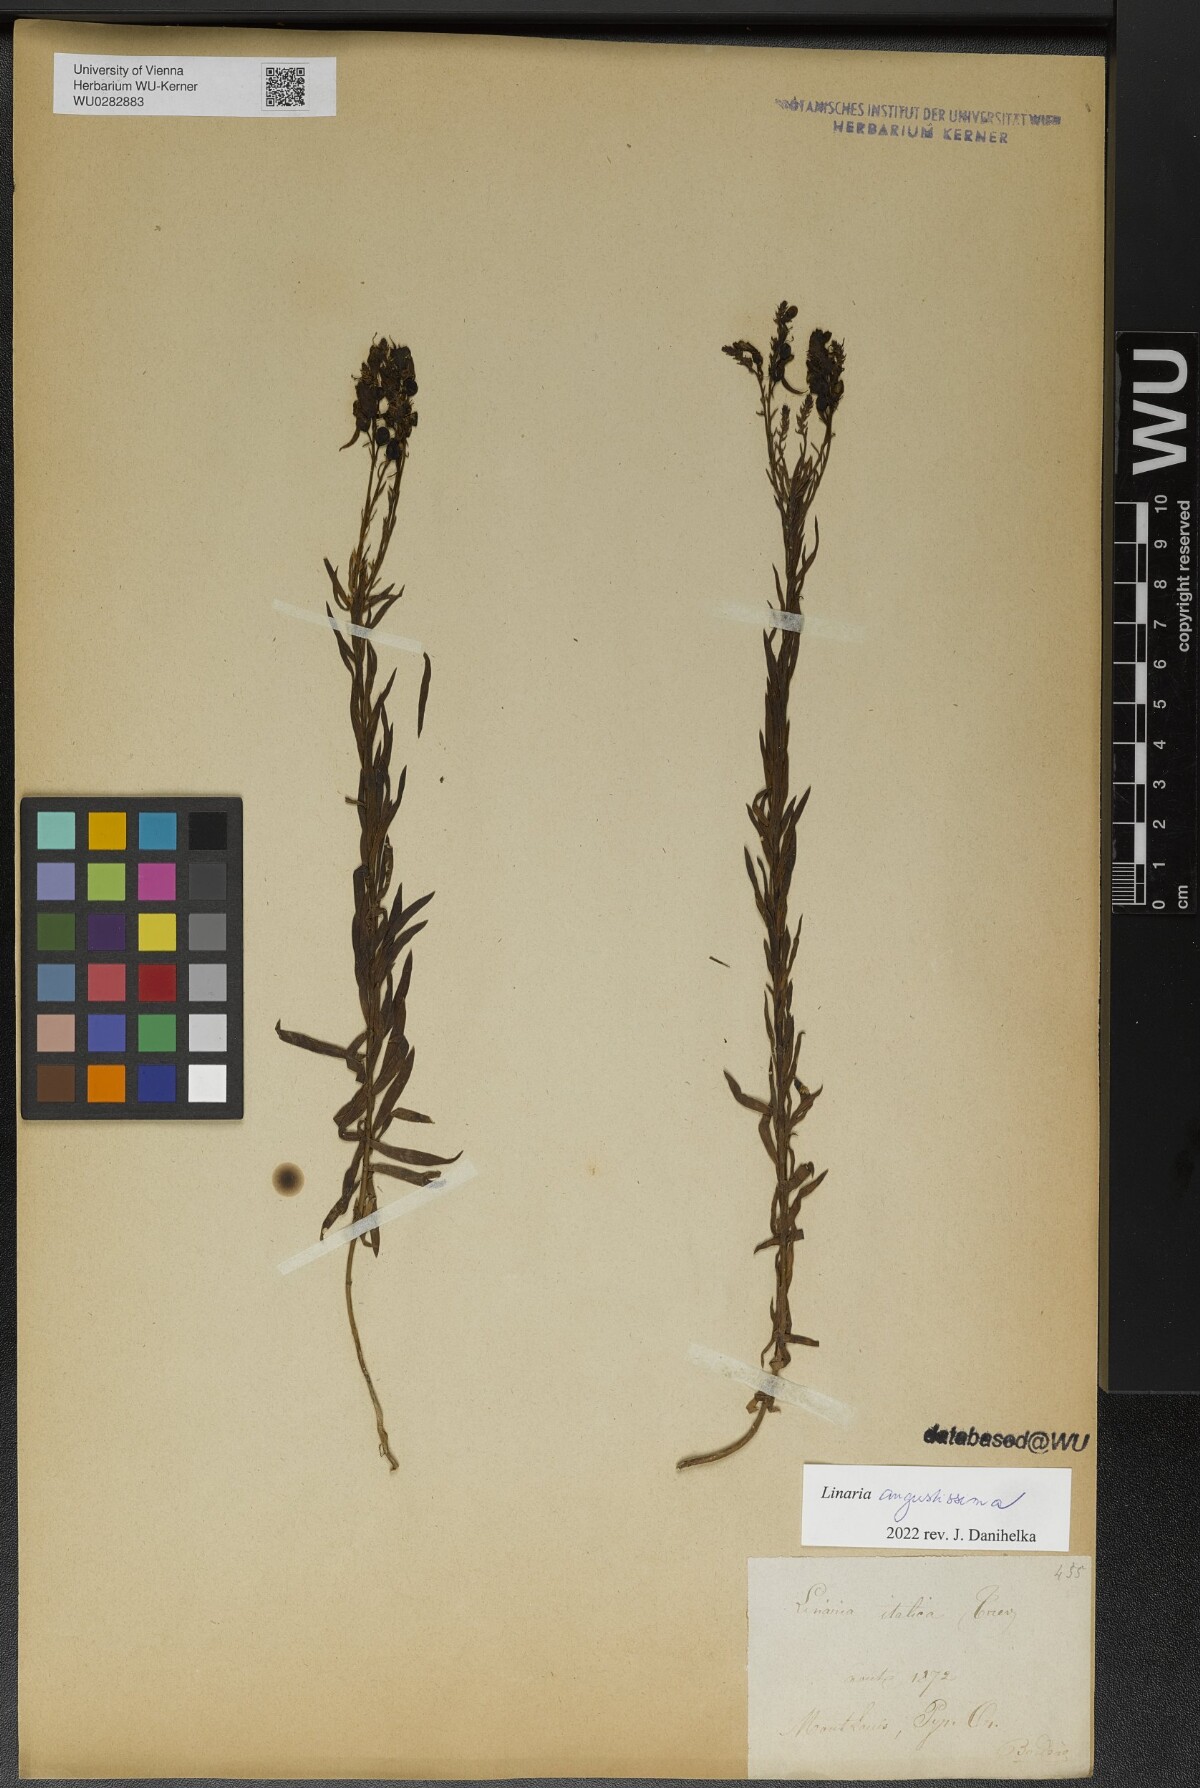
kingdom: Plantae
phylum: Tracheophyta
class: Magnoliopsida
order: Lamiales
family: Plantaginaceae
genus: Linaria
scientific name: Linaria angustissima
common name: Italian toadflax
